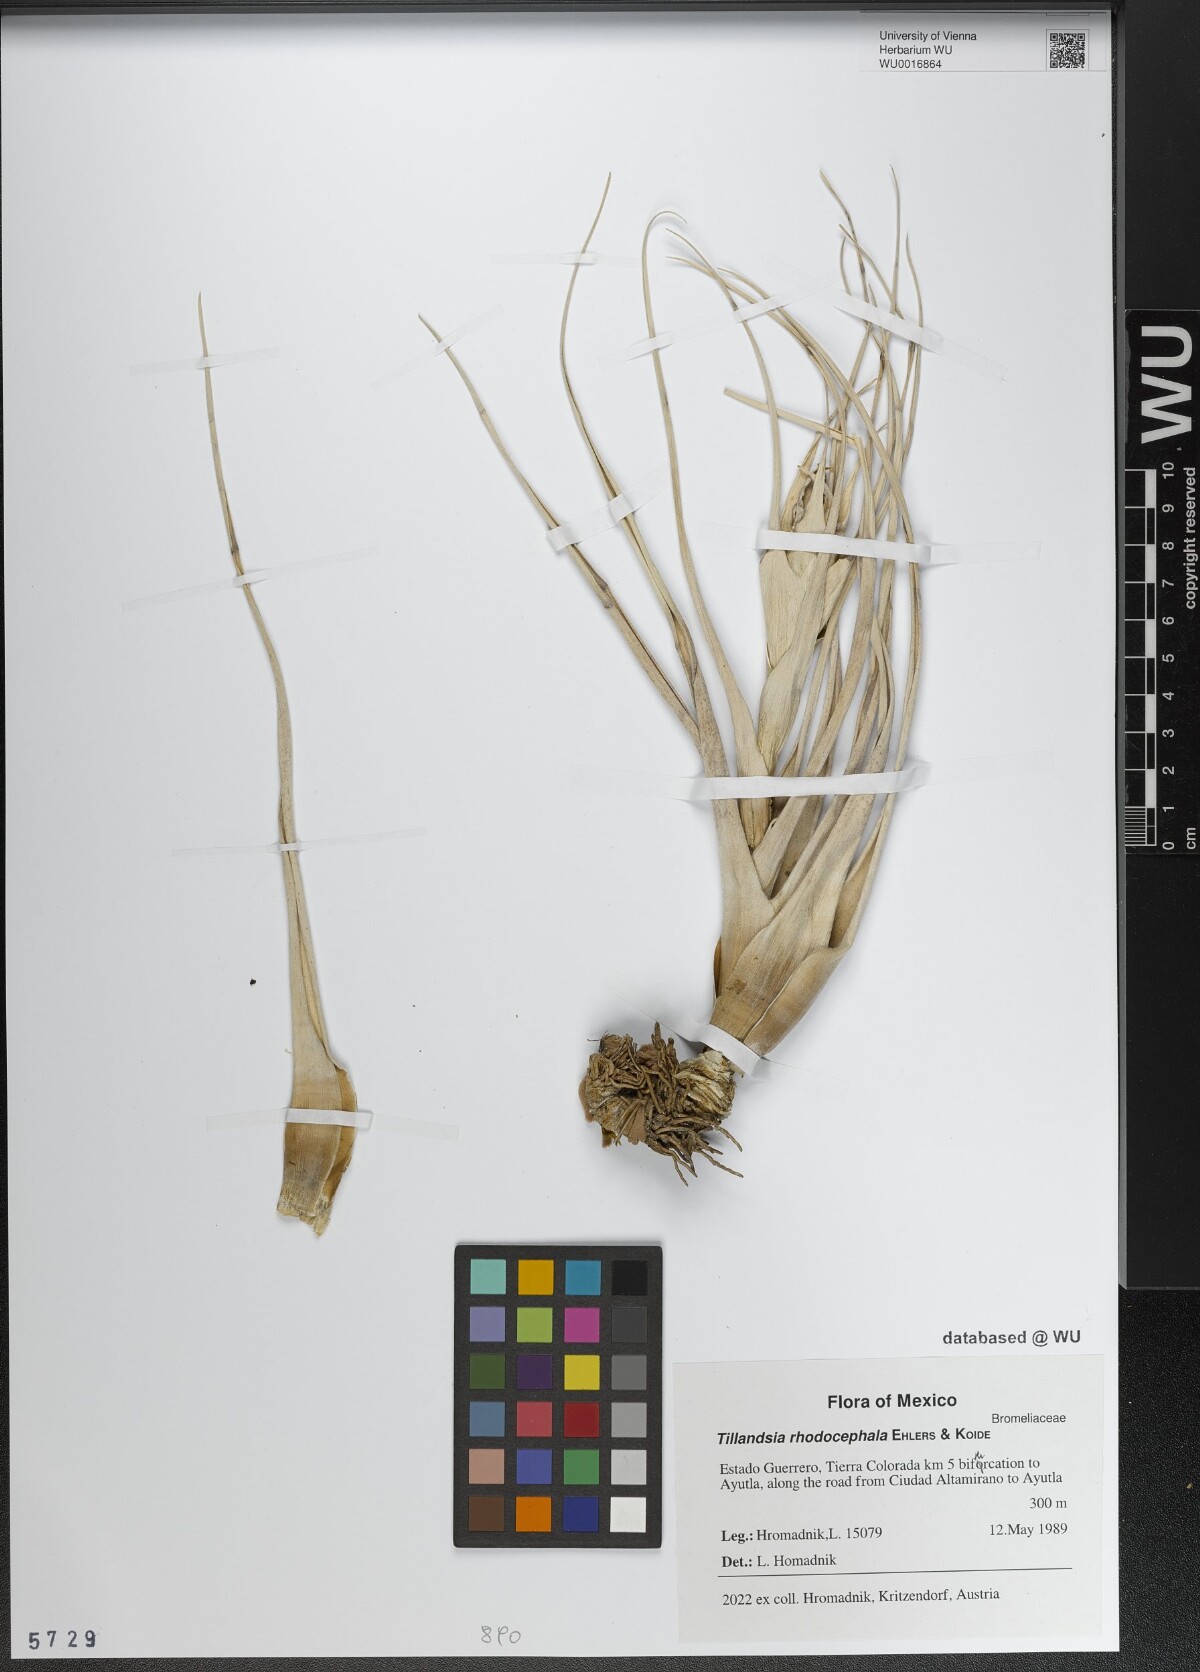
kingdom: Plantae
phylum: Tracheophyta
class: Liliopsida
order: Poales
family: Bromeliaceae
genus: Tillandsia
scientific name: Tillandsia rhodocephala
